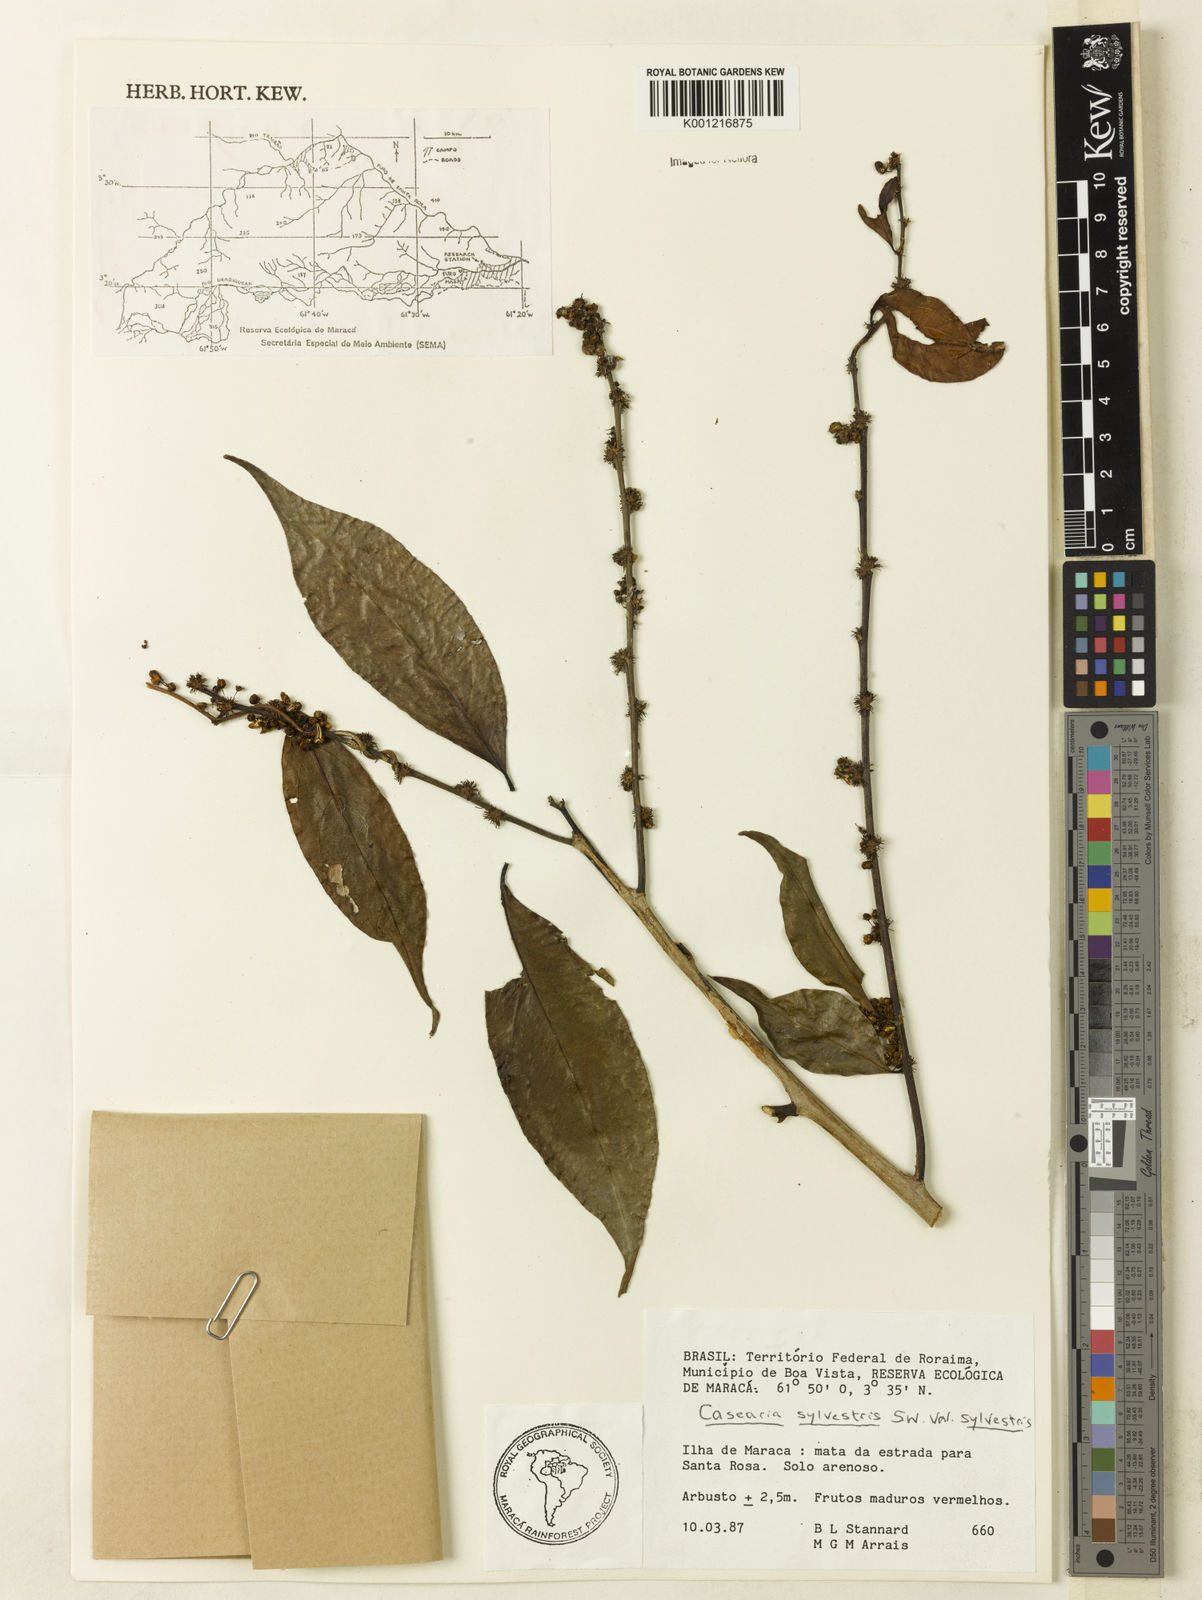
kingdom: Plantae
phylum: Tracheophyta
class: Magnoliopsida
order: Malpighiales
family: Salicaceae
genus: Casearia
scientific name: Casearia sylvestris
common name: Wild sage
